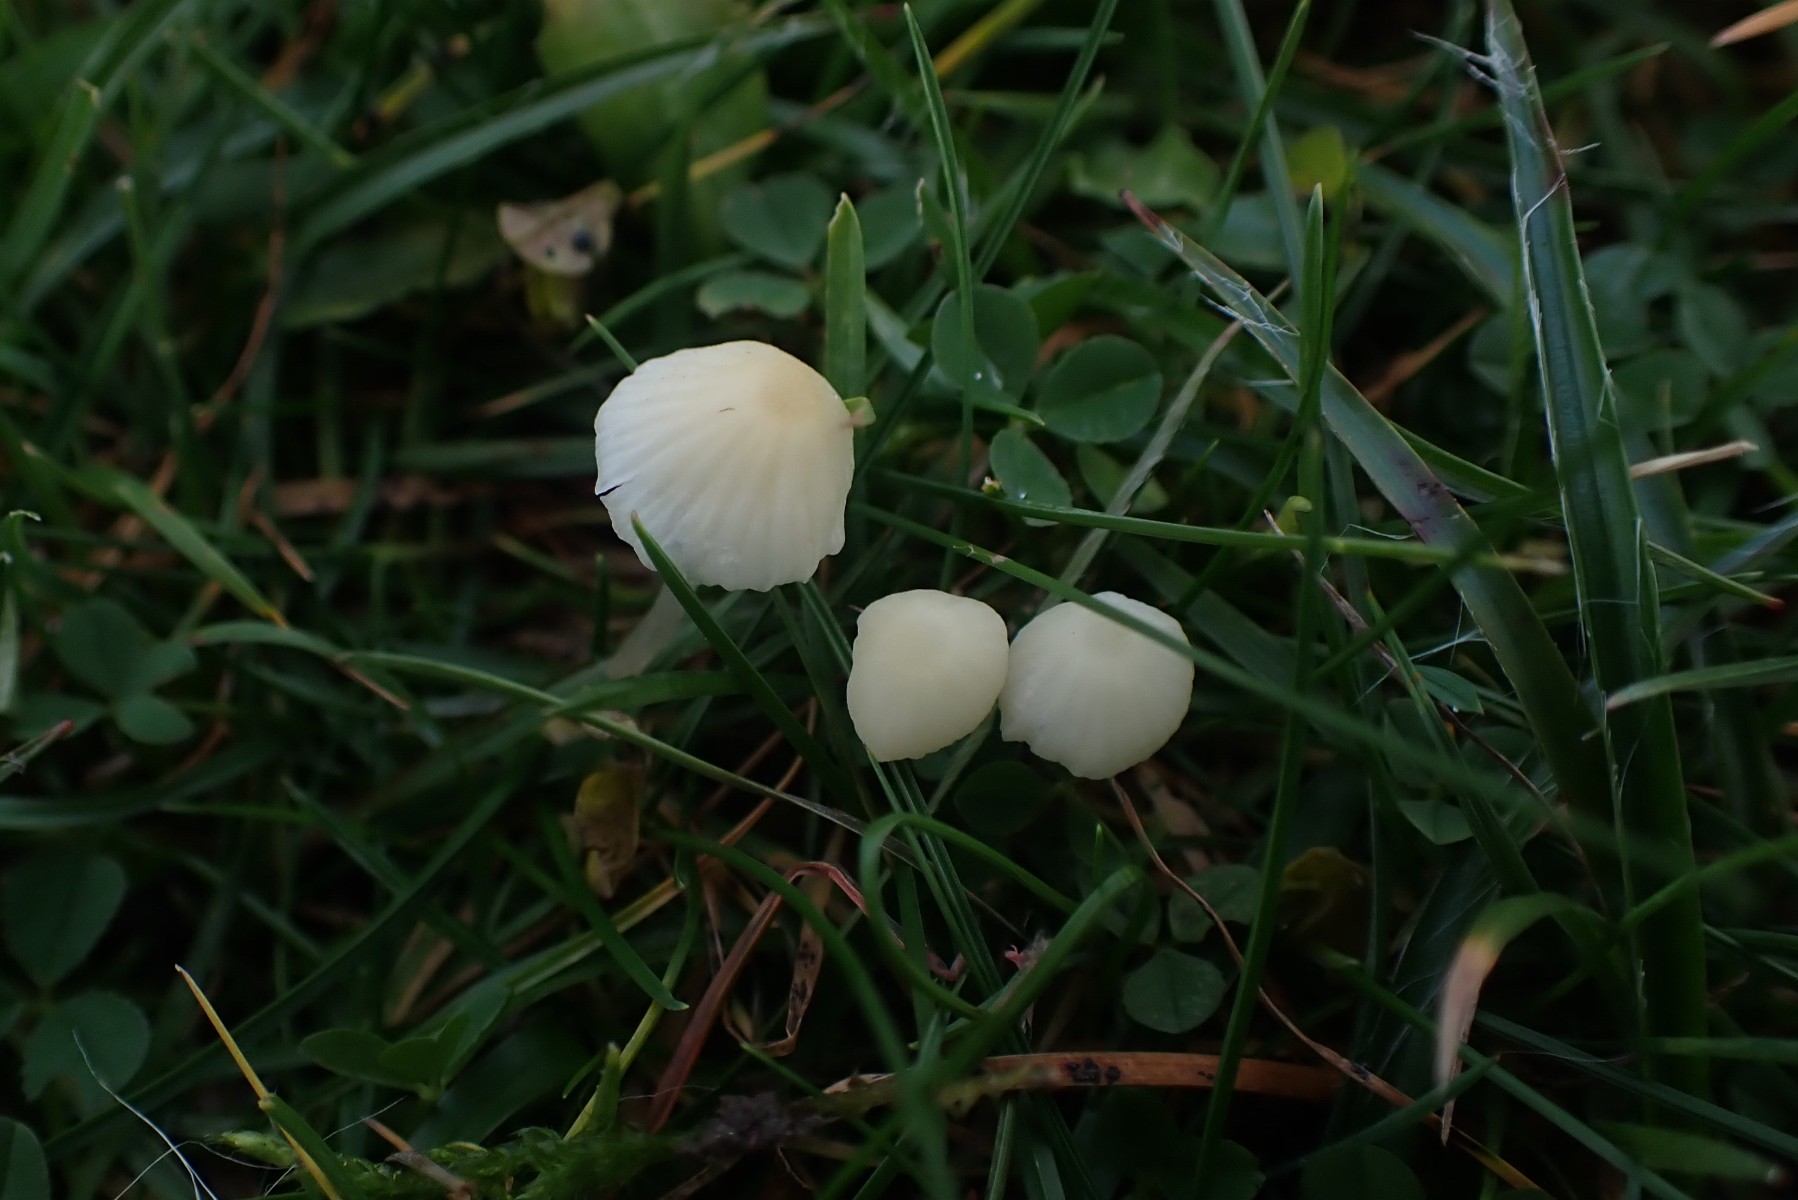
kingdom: Fungi
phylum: Basidiomycota
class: Agaricomycetes
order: Agaricales
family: Mycenaceae
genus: Atheniella
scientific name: Atheniella flavoalba
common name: gulhvid huesvamp
